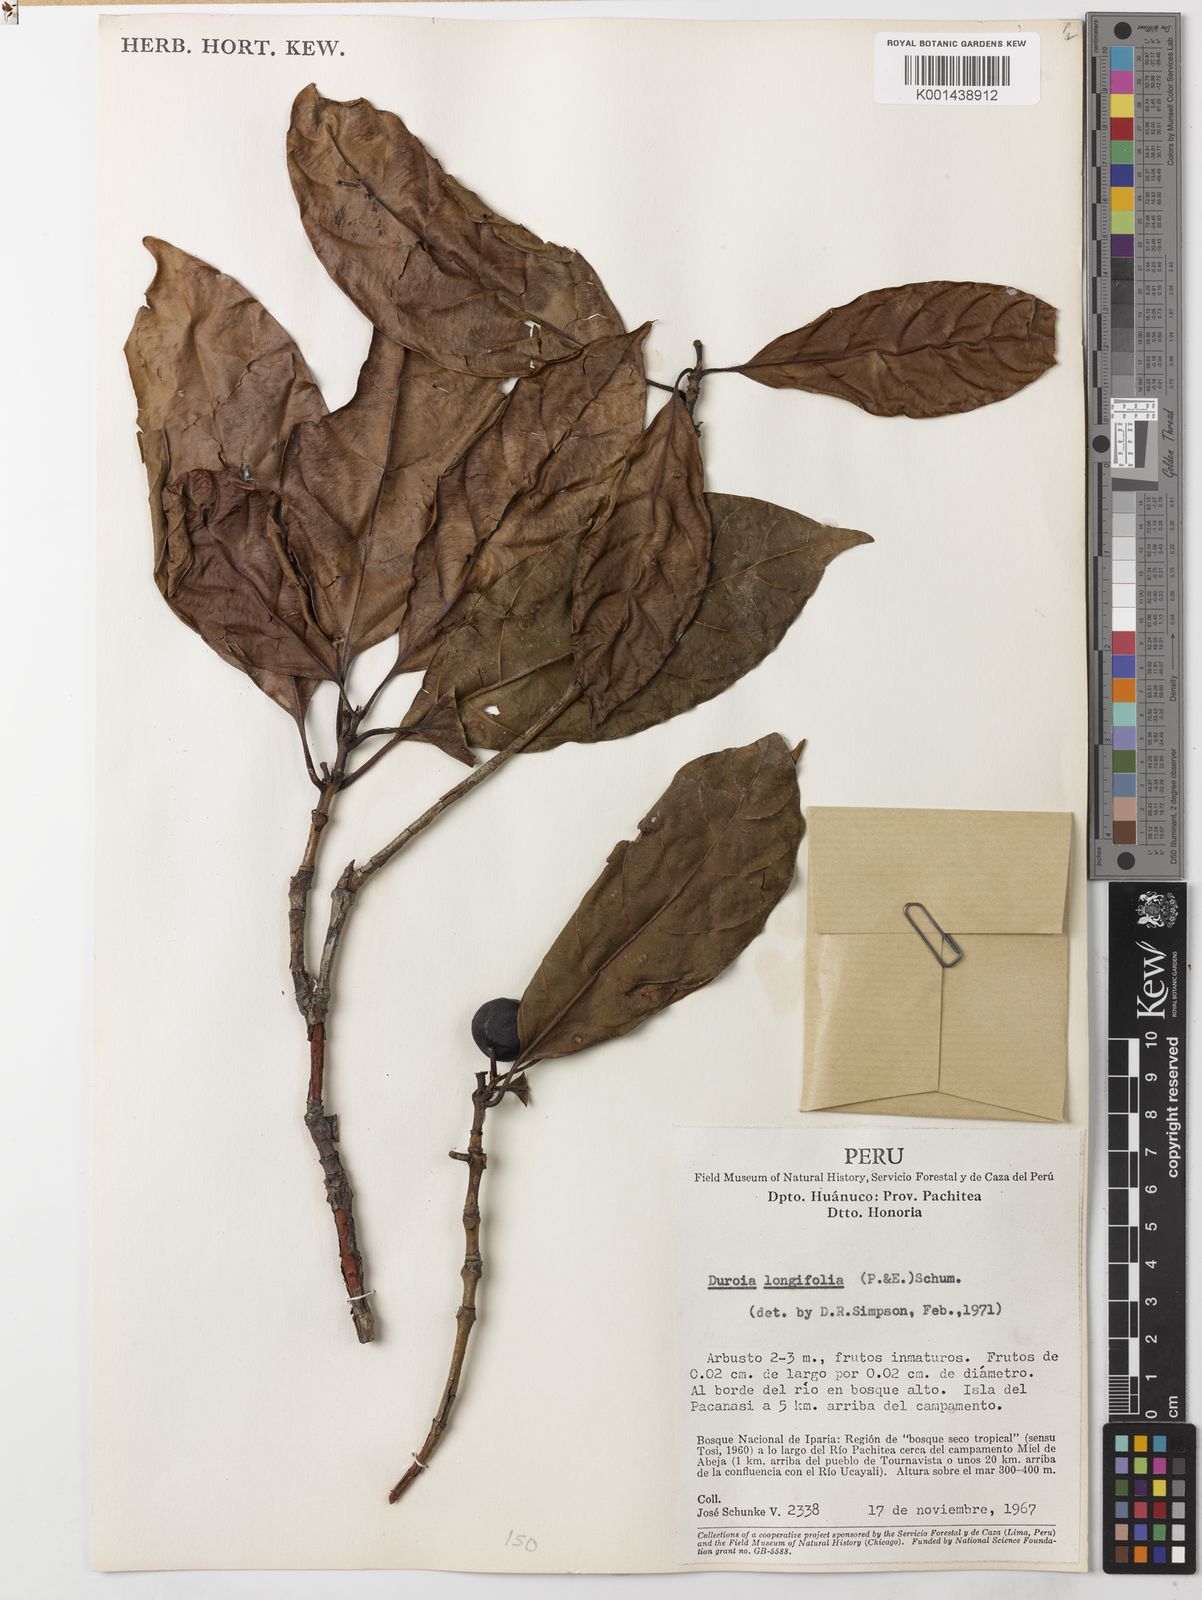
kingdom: Plantae
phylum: Tracheophyta
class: Magnoliopsida
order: Gentianales
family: Rubiaceae
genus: Duroia
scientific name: Duroia longifolia
